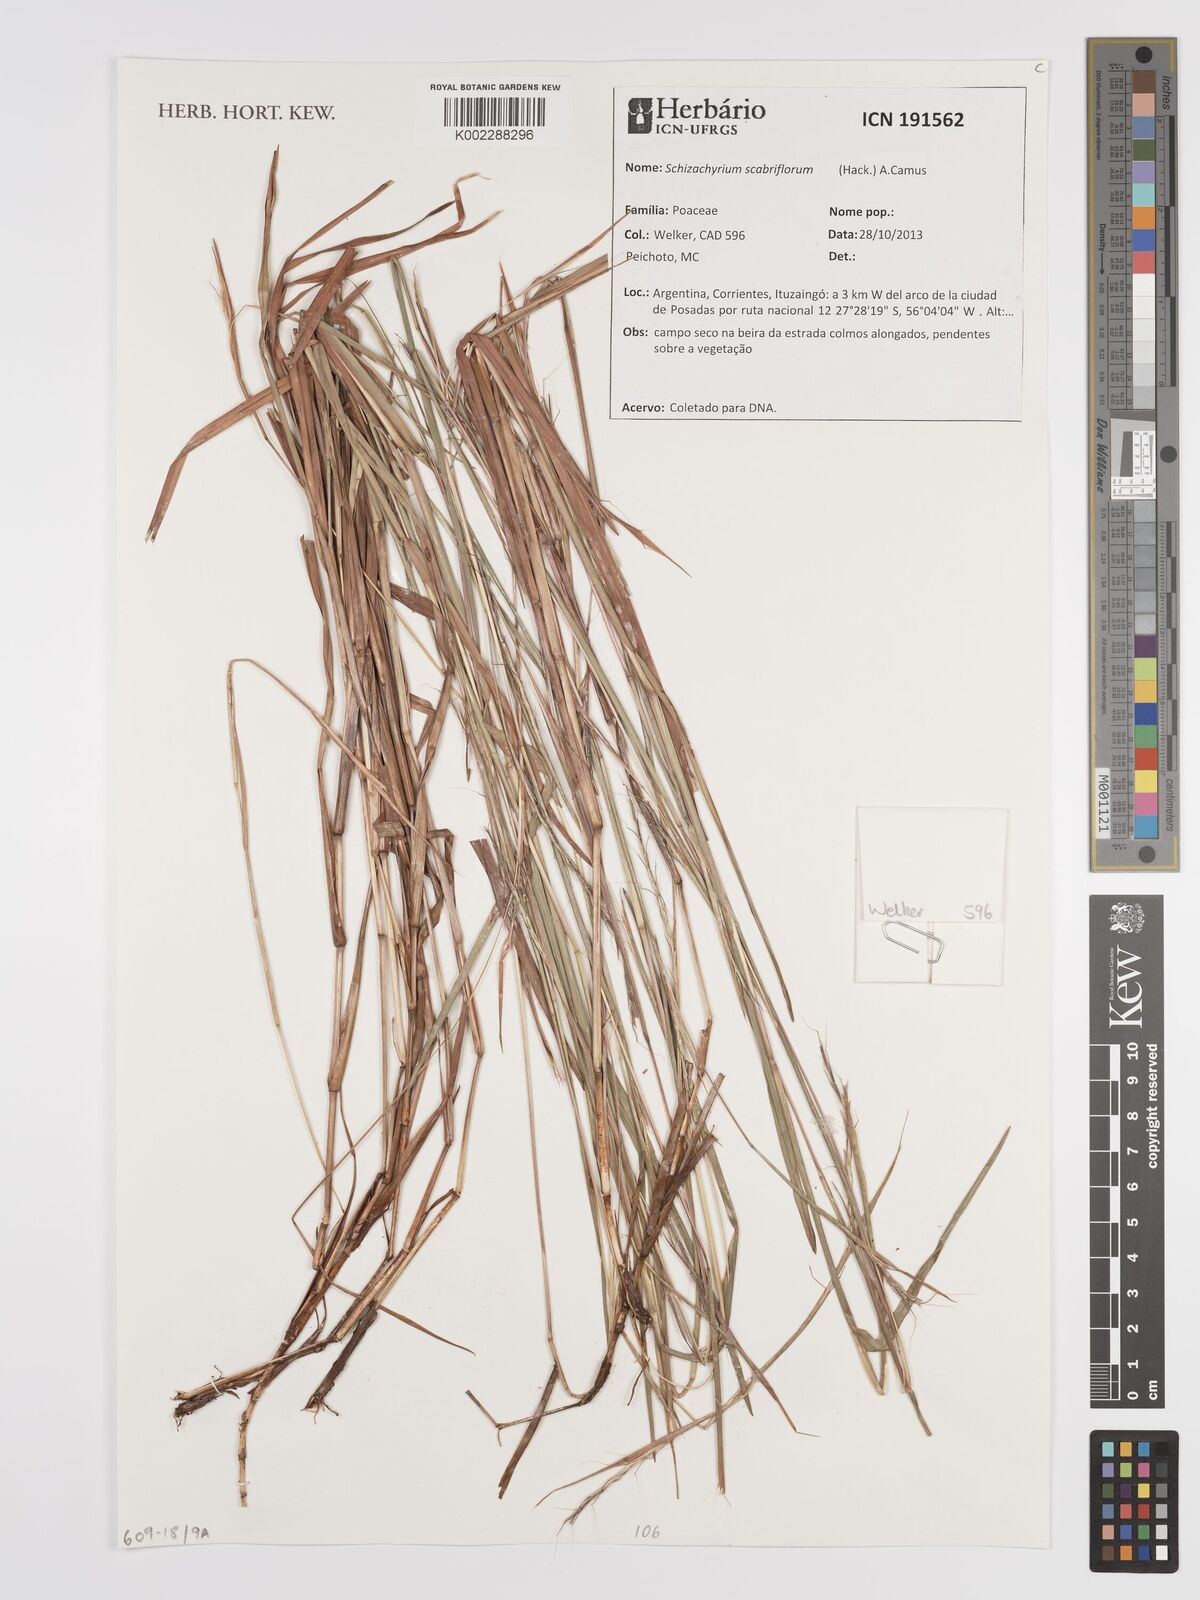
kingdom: Plantae
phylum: Tracheophyta
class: Liliopsida
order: Poales
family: Poaceae
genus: Schizachyrium
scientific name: Schizachyrium scabriflorum
